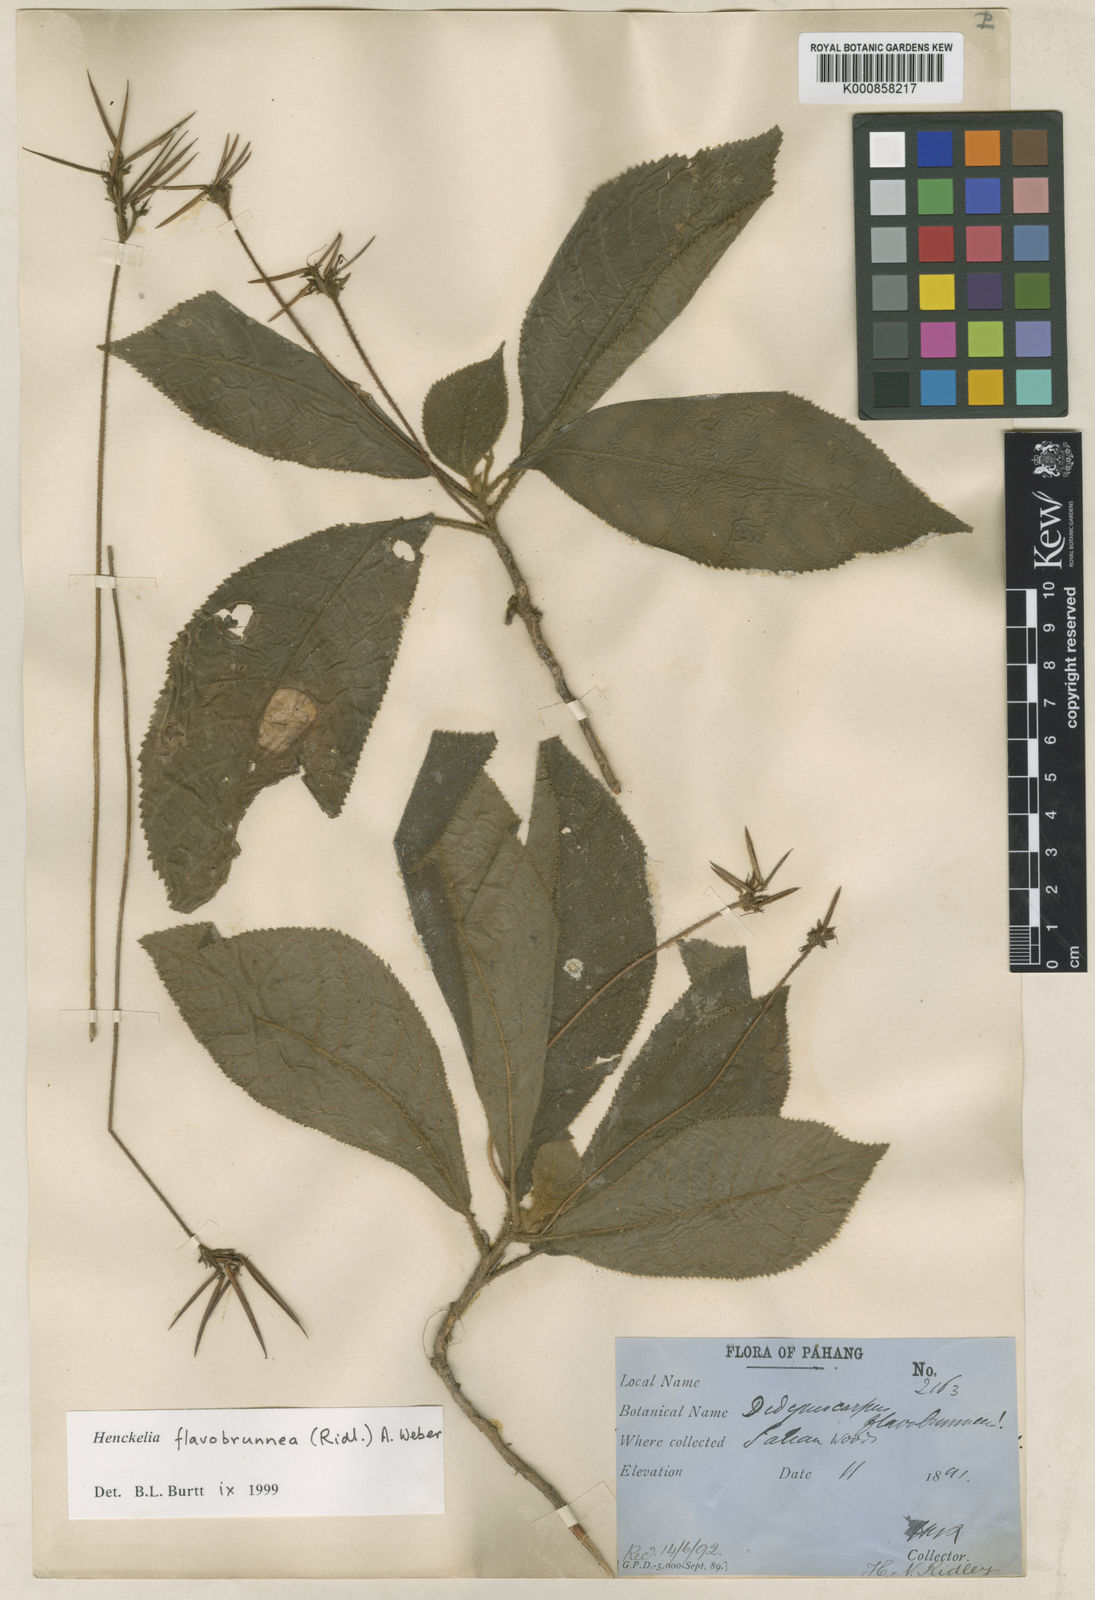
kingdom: Plantae
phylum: Tracheophyta
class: Magnoliopsida
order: Lamiales
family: Gesneriaceae
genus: Codonoboea
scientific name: Codonoboea flavobrunnea
